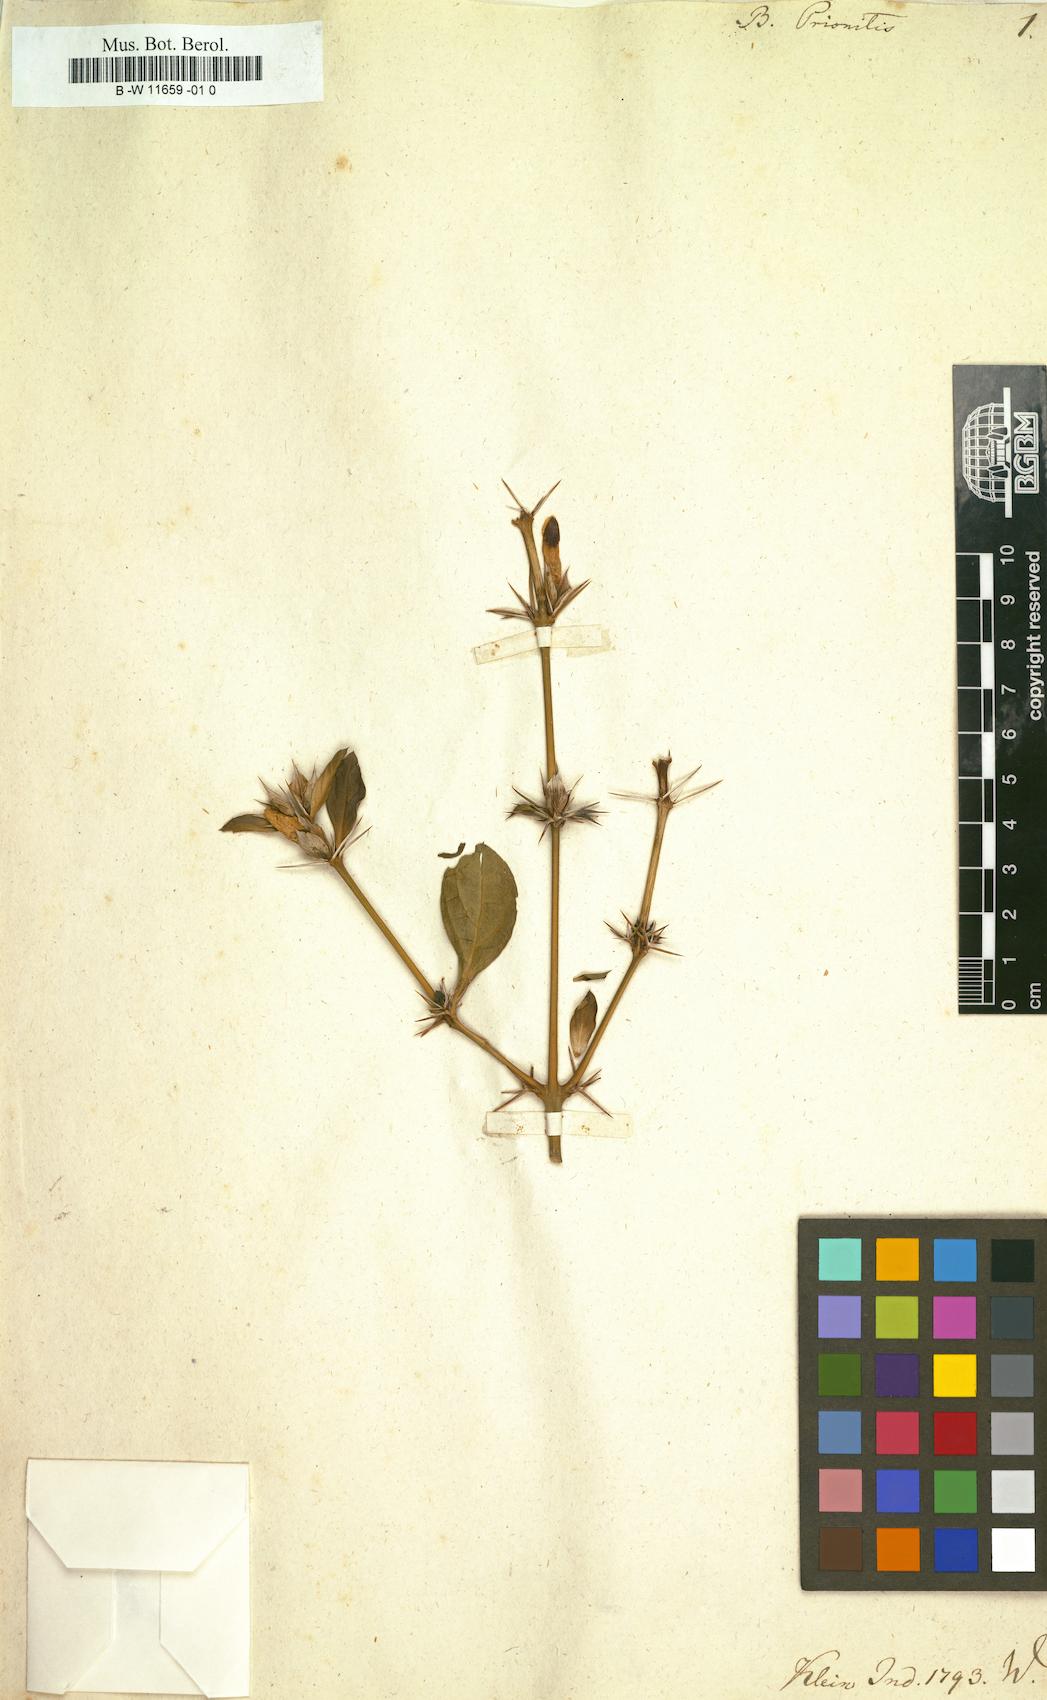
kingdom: Plantae
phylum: Tracheophyta
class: Magnoliopsida
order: Lamiales
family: Acanthaceae
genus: Barleria
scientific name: Barleria prionitis
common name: Barleria
